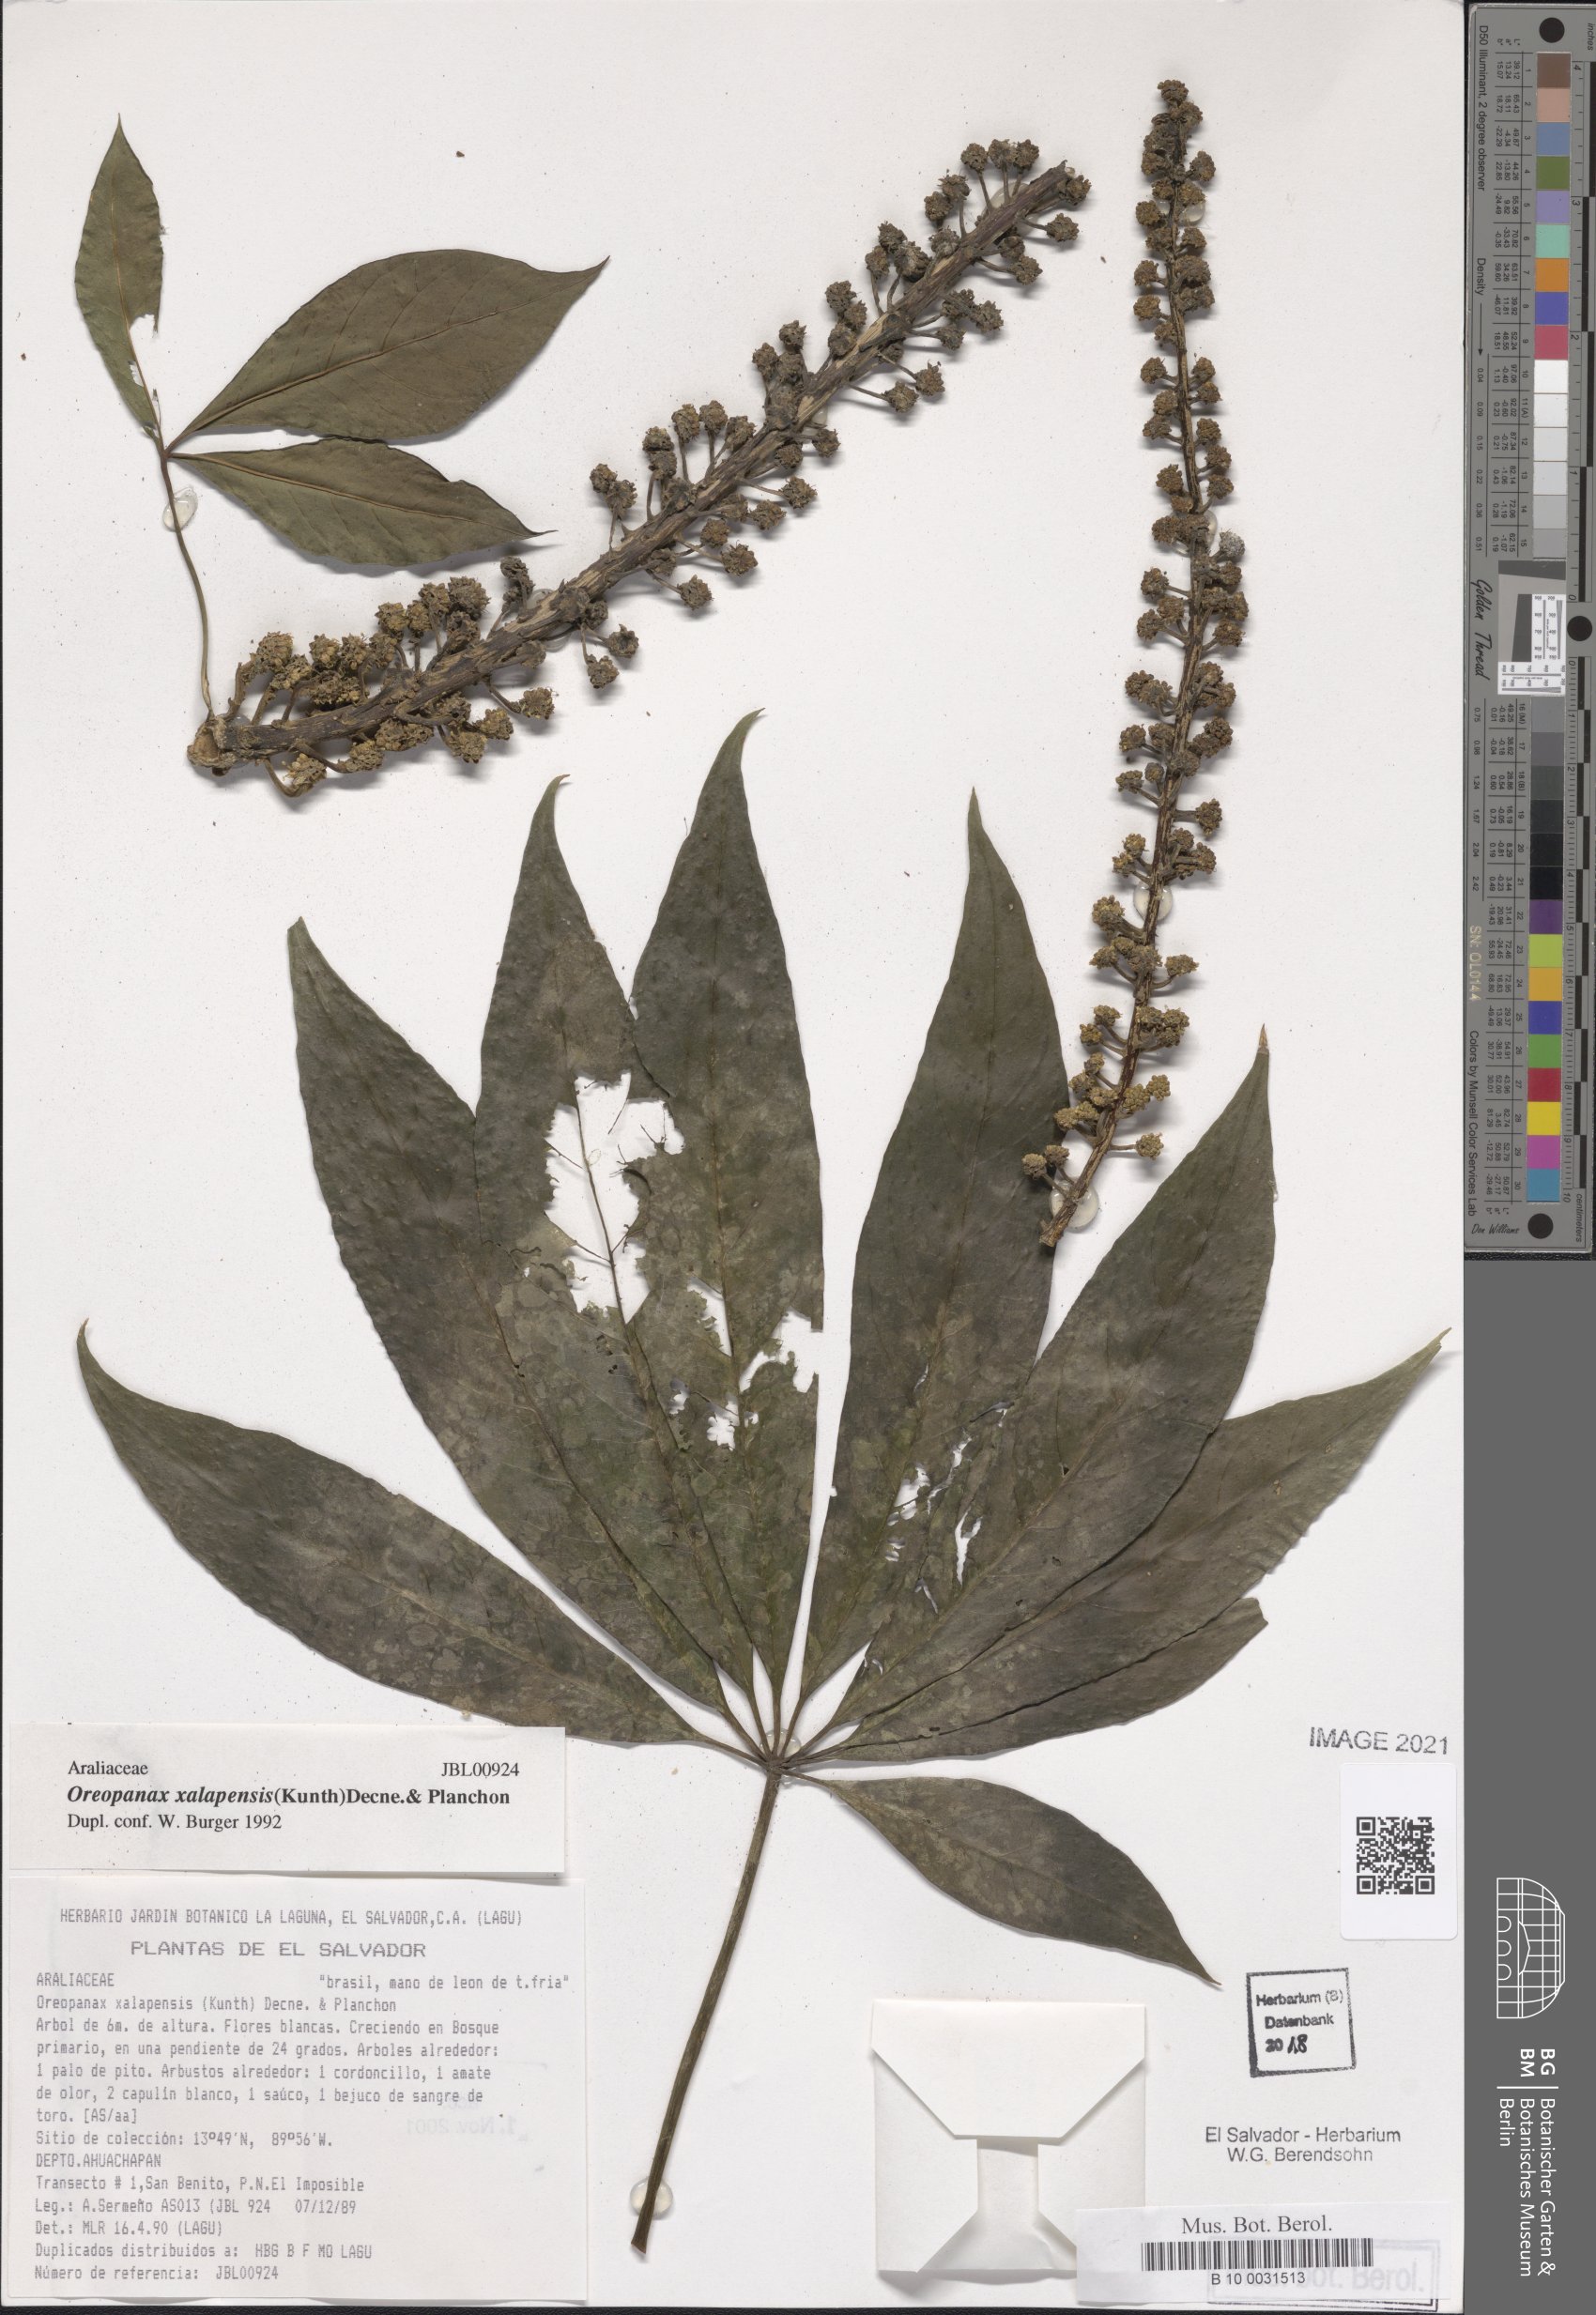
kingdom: Plantae
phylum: Tracheophyta
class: Magnoliopsida
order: Apiales
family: Araliaceae
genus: Oreopanax
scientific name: Oreopanax xalapensis
